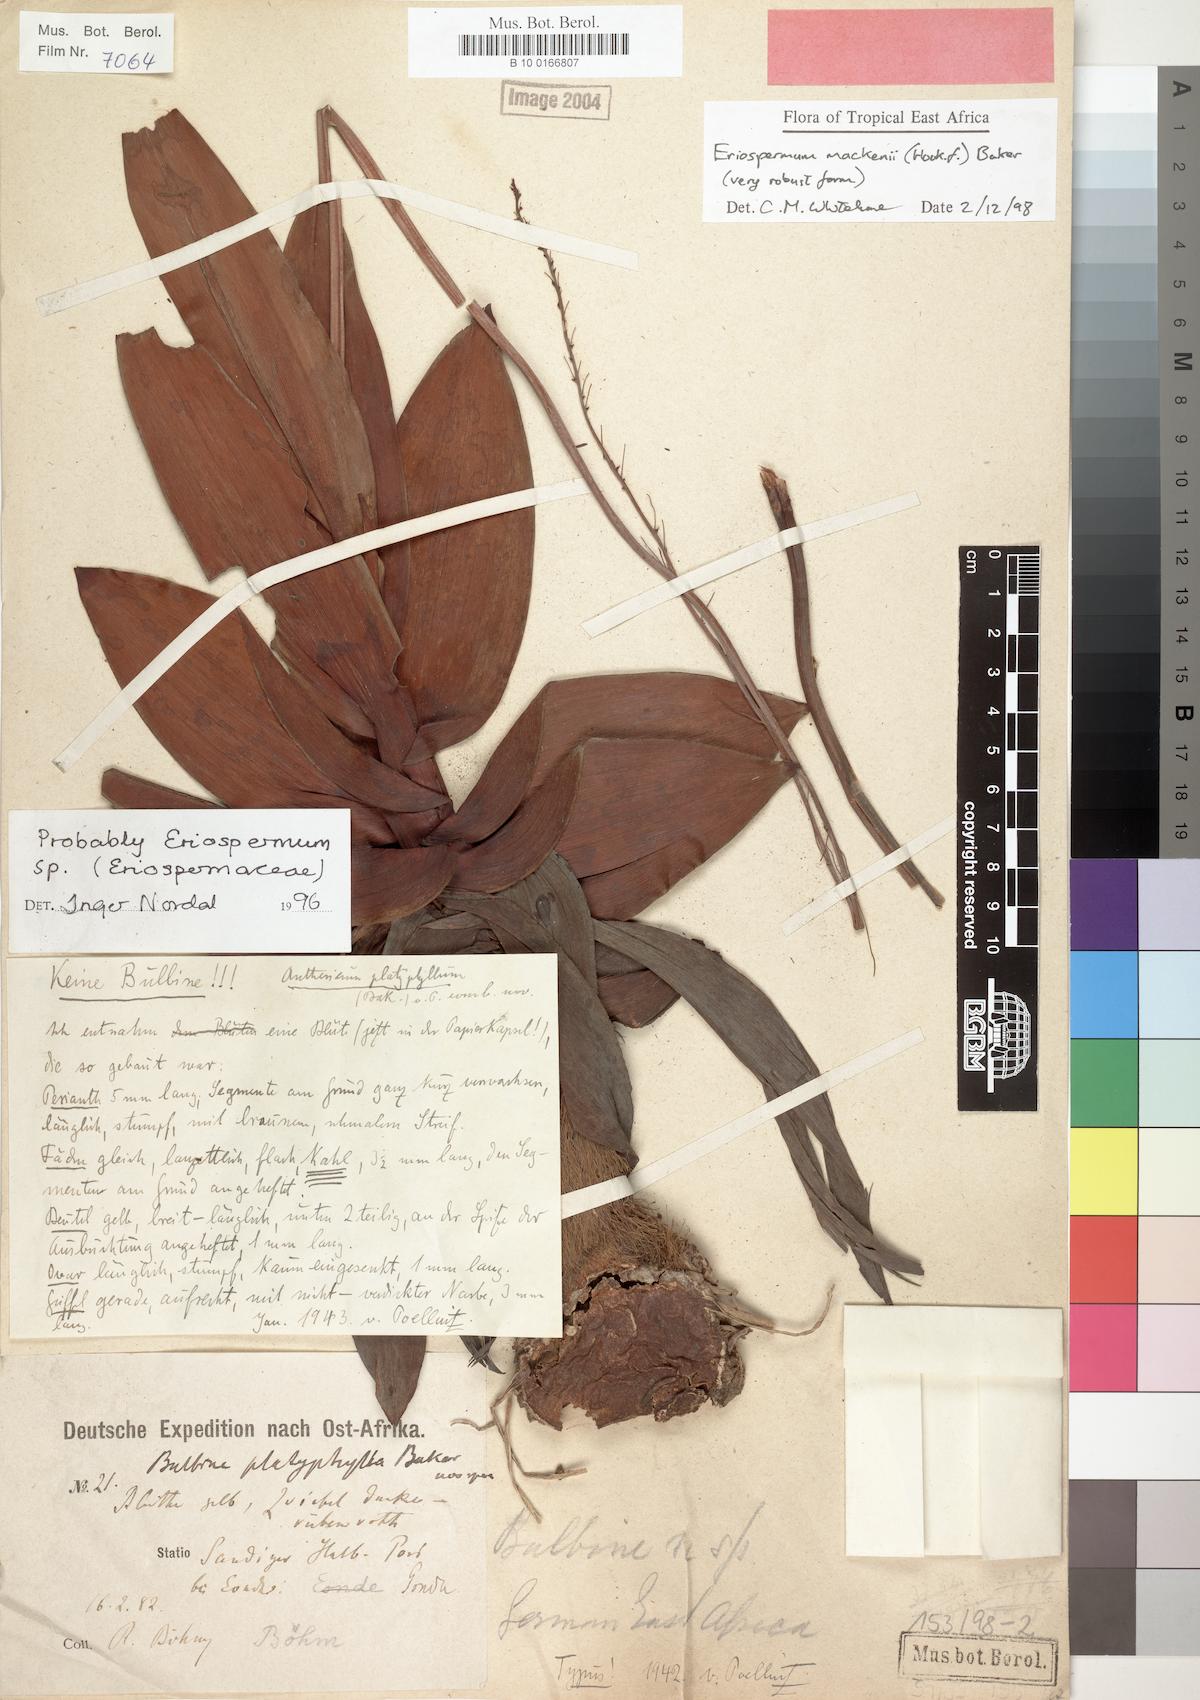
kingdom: Plantae
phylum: Tracheophyta
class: Liliopsida
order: Asparagales
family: Asparagaceae
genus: Eriospermum
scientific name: Eriospermum mackenii
